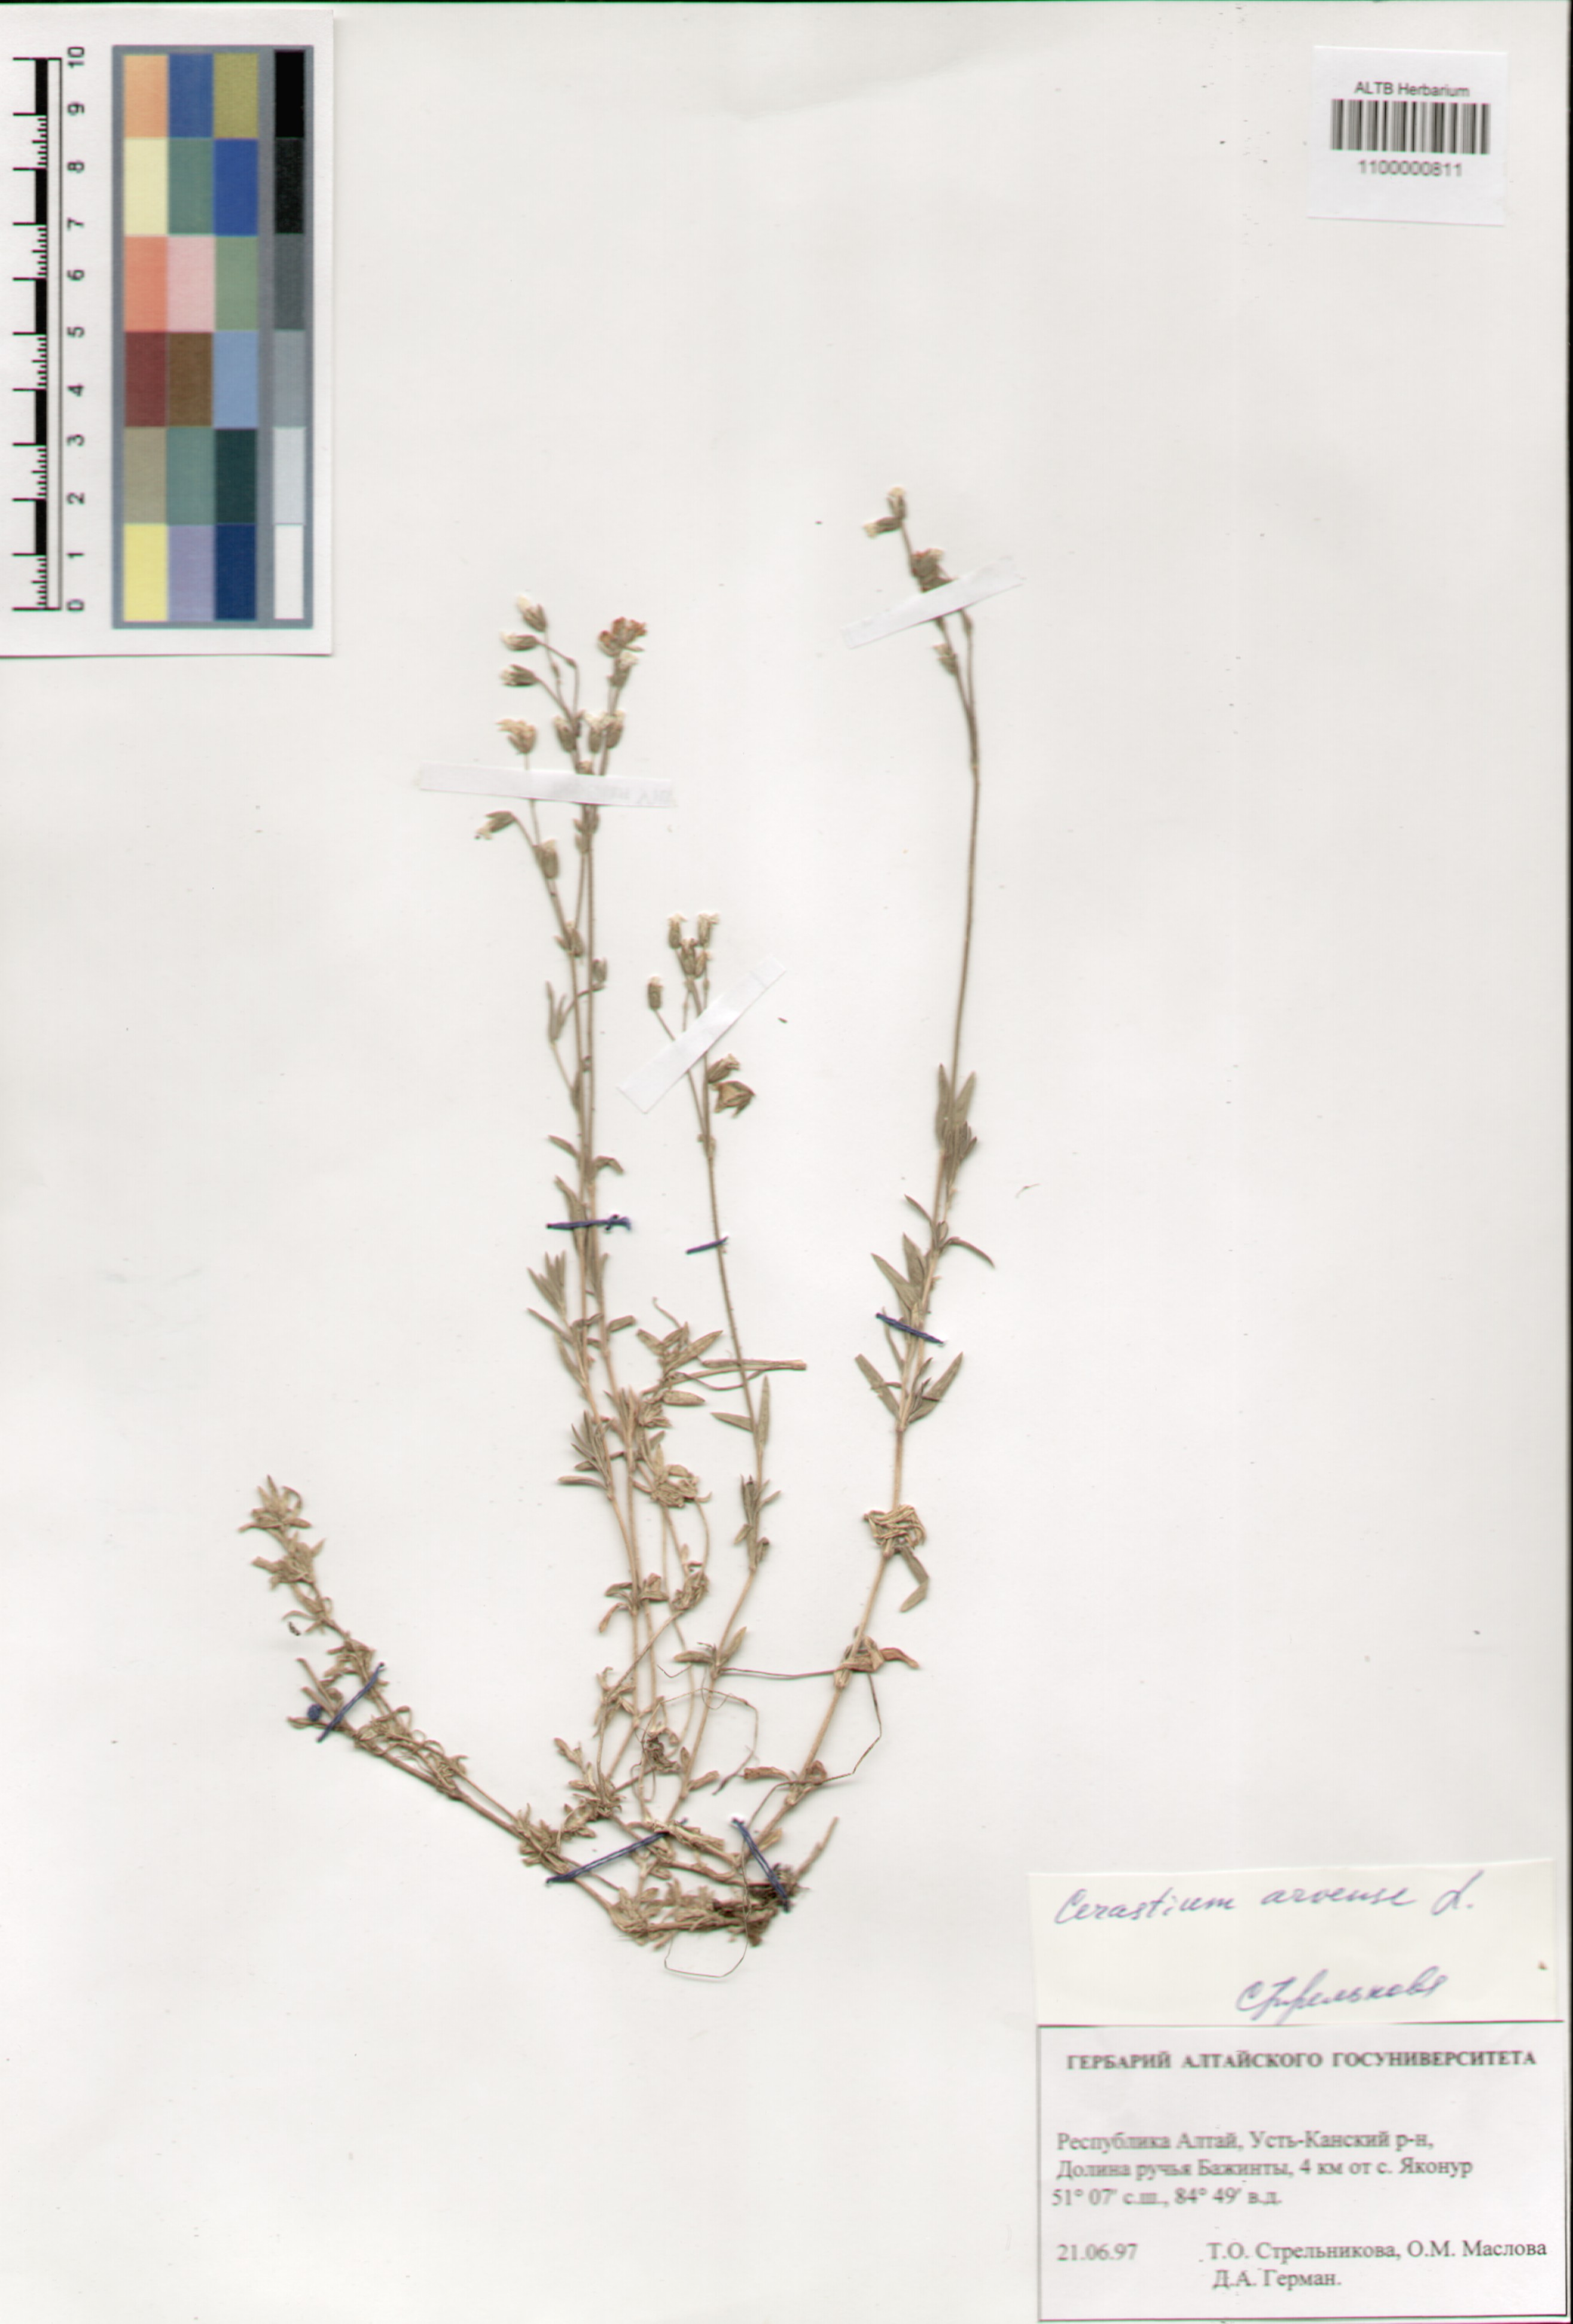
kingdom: Plantae
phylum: Tracheophyta
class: Magnoliopsida
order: Caryophyllales
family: Caryophyllaceae
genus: Cerastium
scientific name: Cerastium arvense
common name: Field mouse-ear
